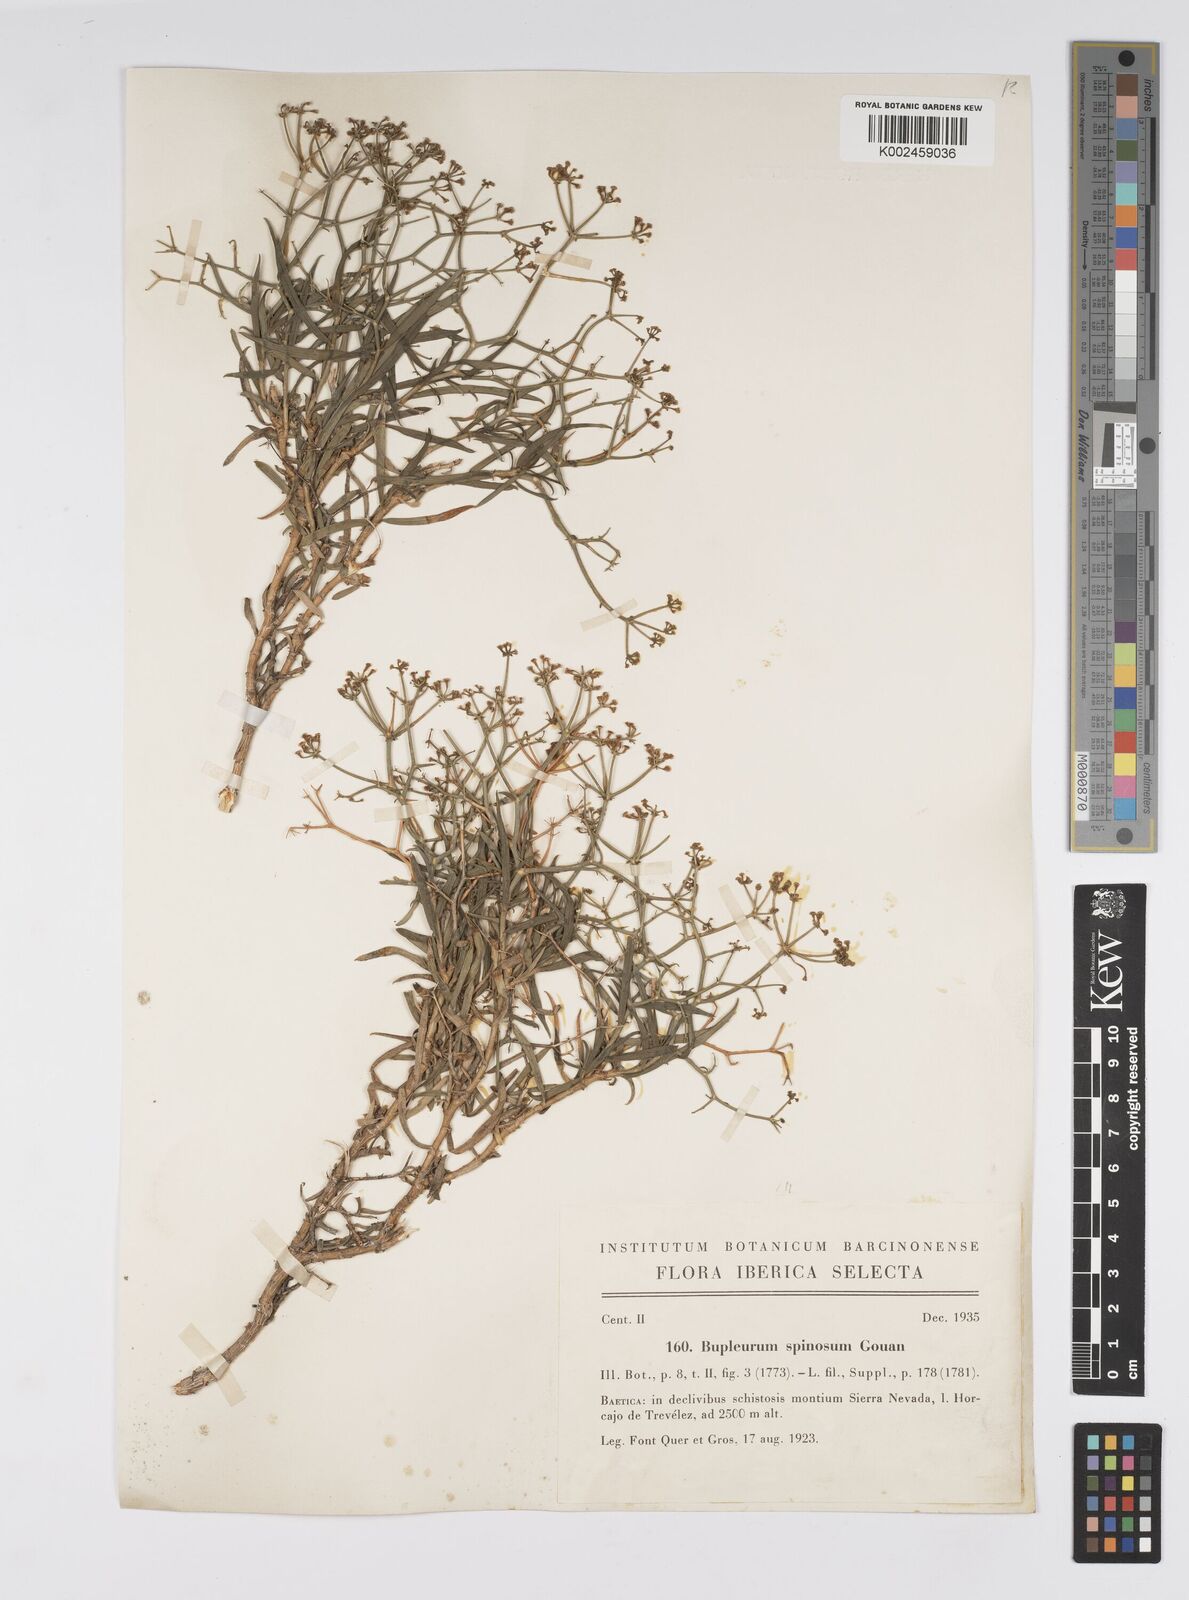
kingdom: Plantae
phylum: Tracheophyta
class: Magnoliopsida
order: Apiales
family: Apiaceae
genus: Bupleurum
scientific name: Bupleurum fruticescens
